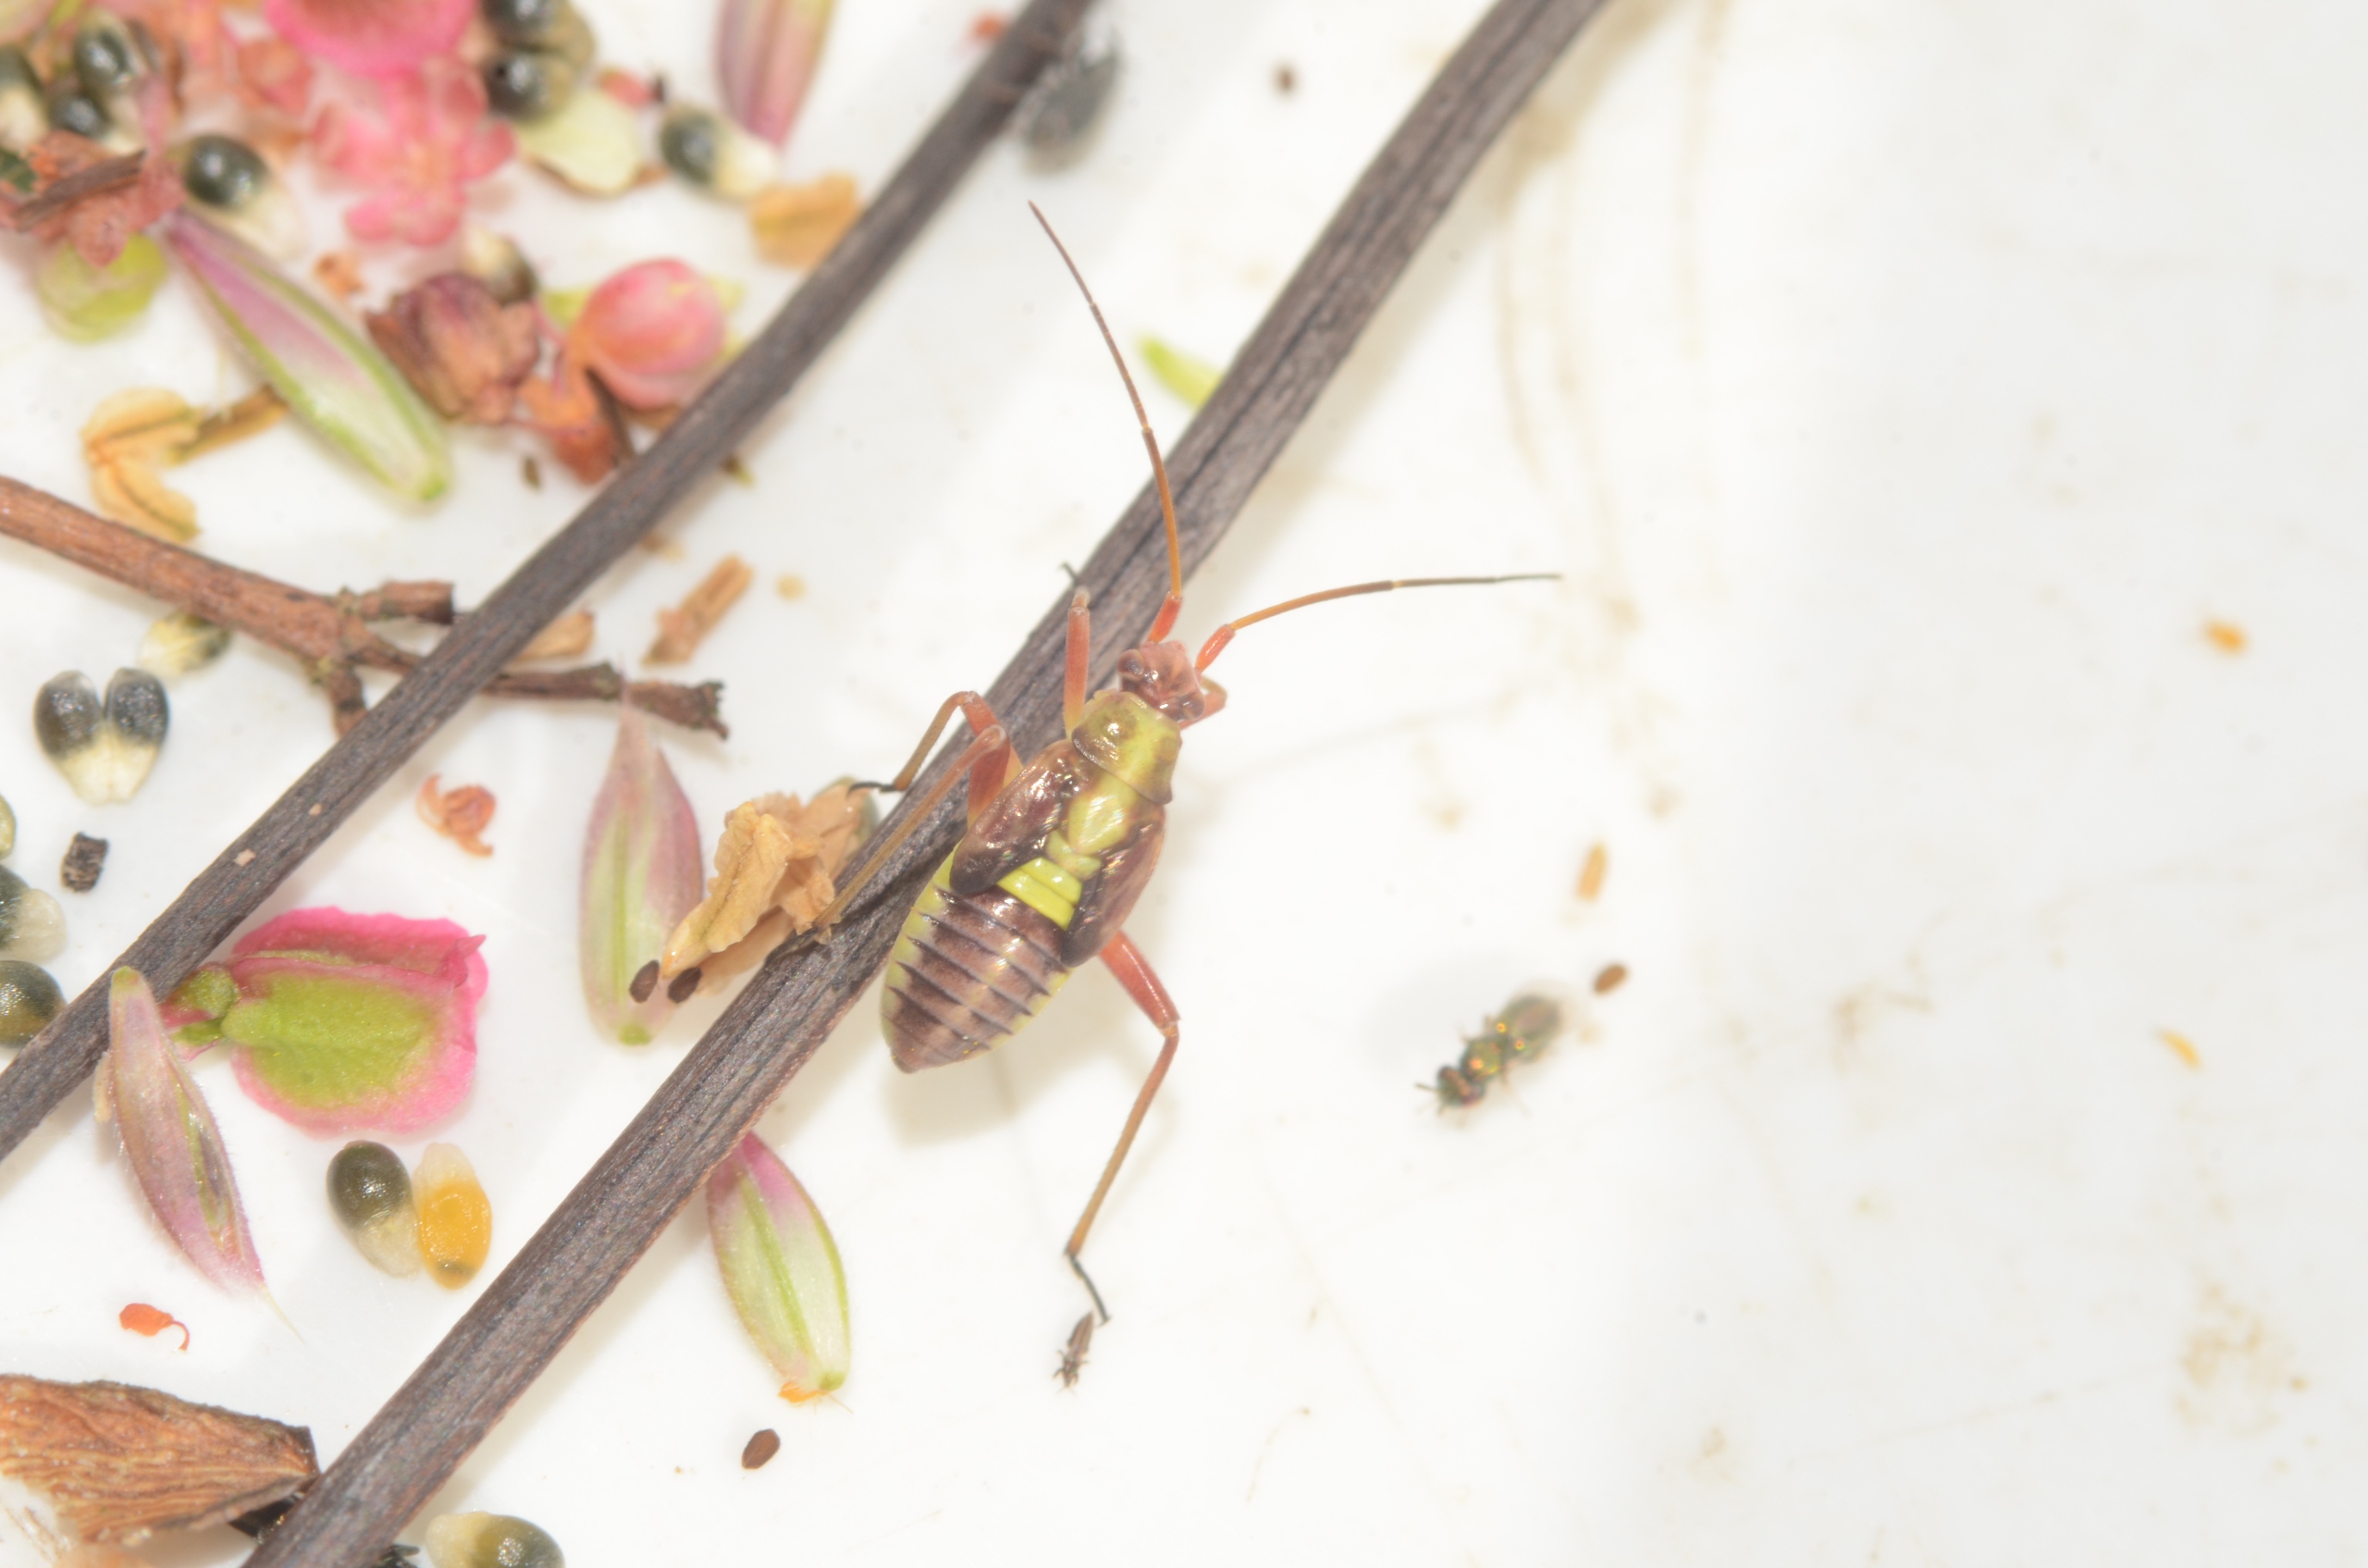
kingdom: Animalia
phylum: Arthropoda
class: Insecta
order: Hemiptera
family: Miridae
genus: Calocoris
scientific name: Calocoris roseomaculatus
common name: Rølliketæge
